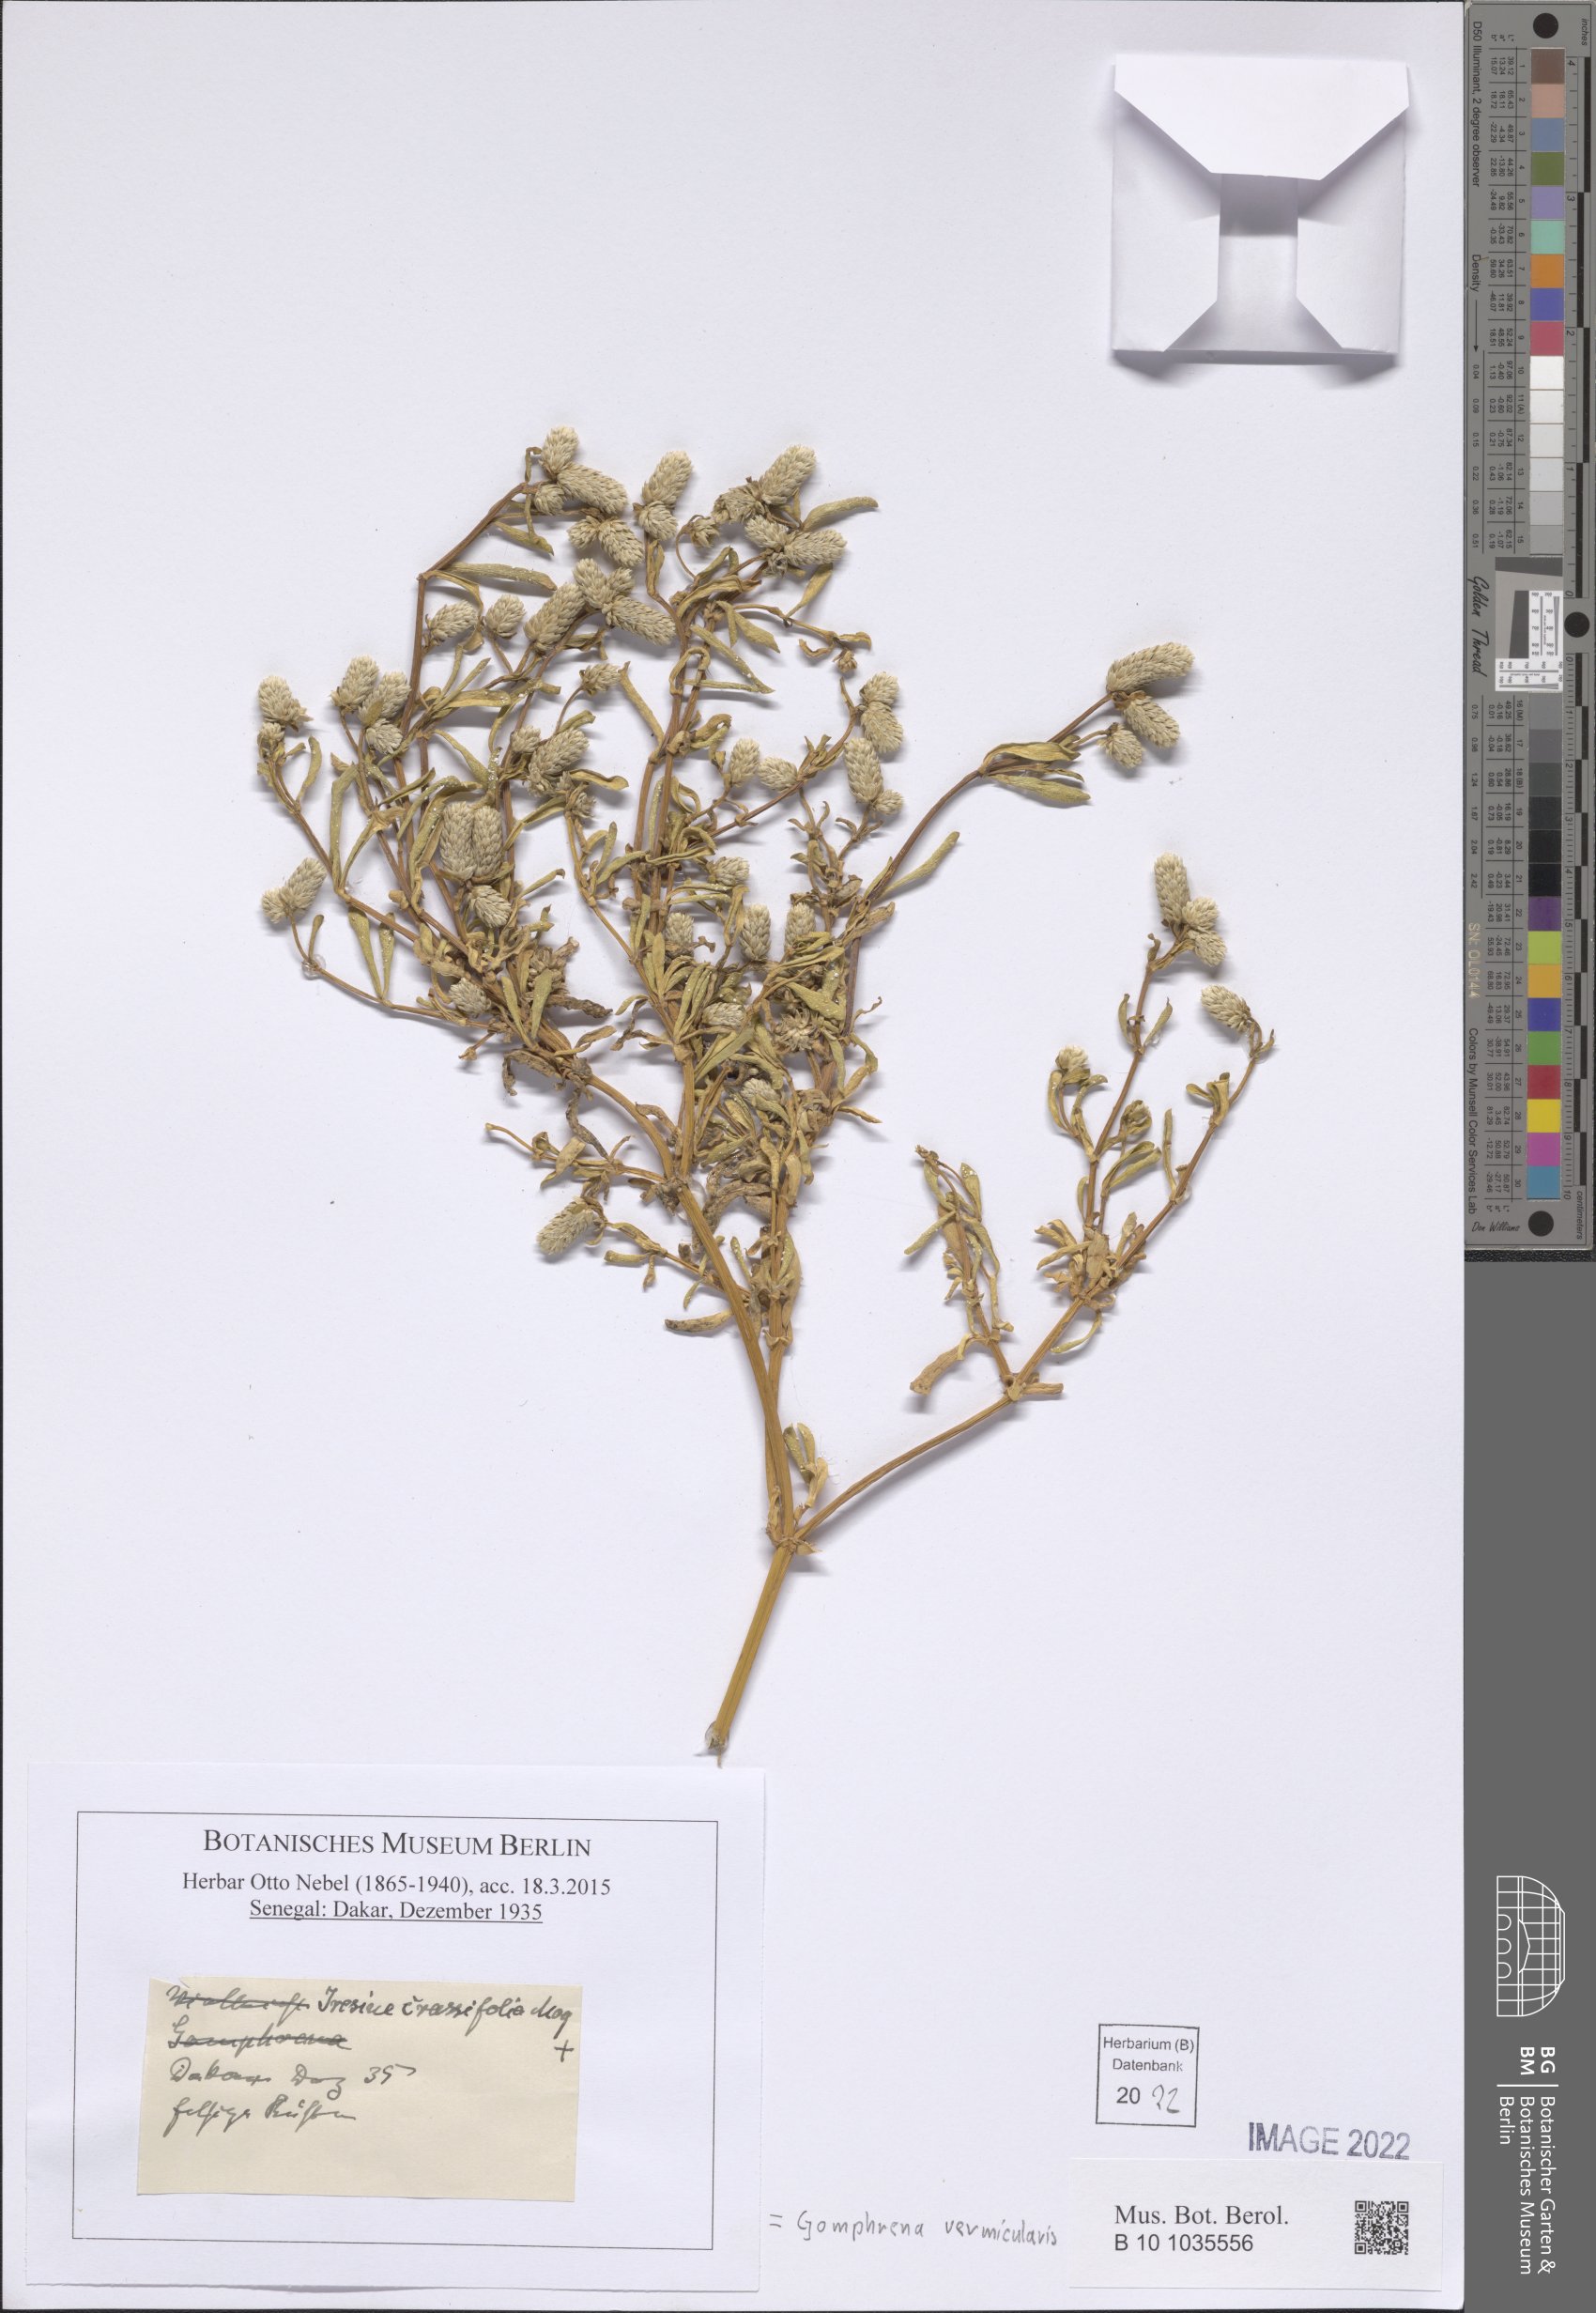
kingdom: Plantae
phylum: Tracheophyta
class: Magnoliopsida
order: Caryophyllales
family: Amaranthaceae
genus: Gomphrena
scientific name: Gomphrena vermicularis
